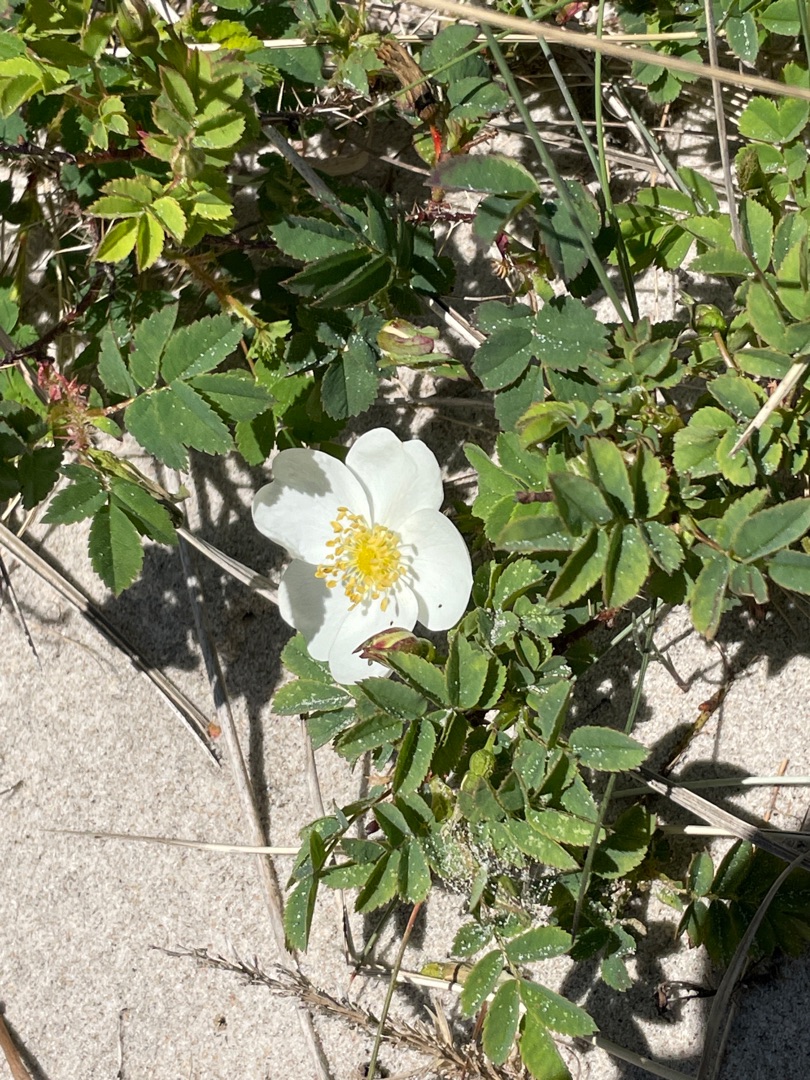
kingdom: Plantae
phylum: Tracheophyta
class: Magnoliopsida
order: Rosales
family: Rosaceae
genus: Rosa
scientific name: Rosa spinosissima
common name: Klit-rose
